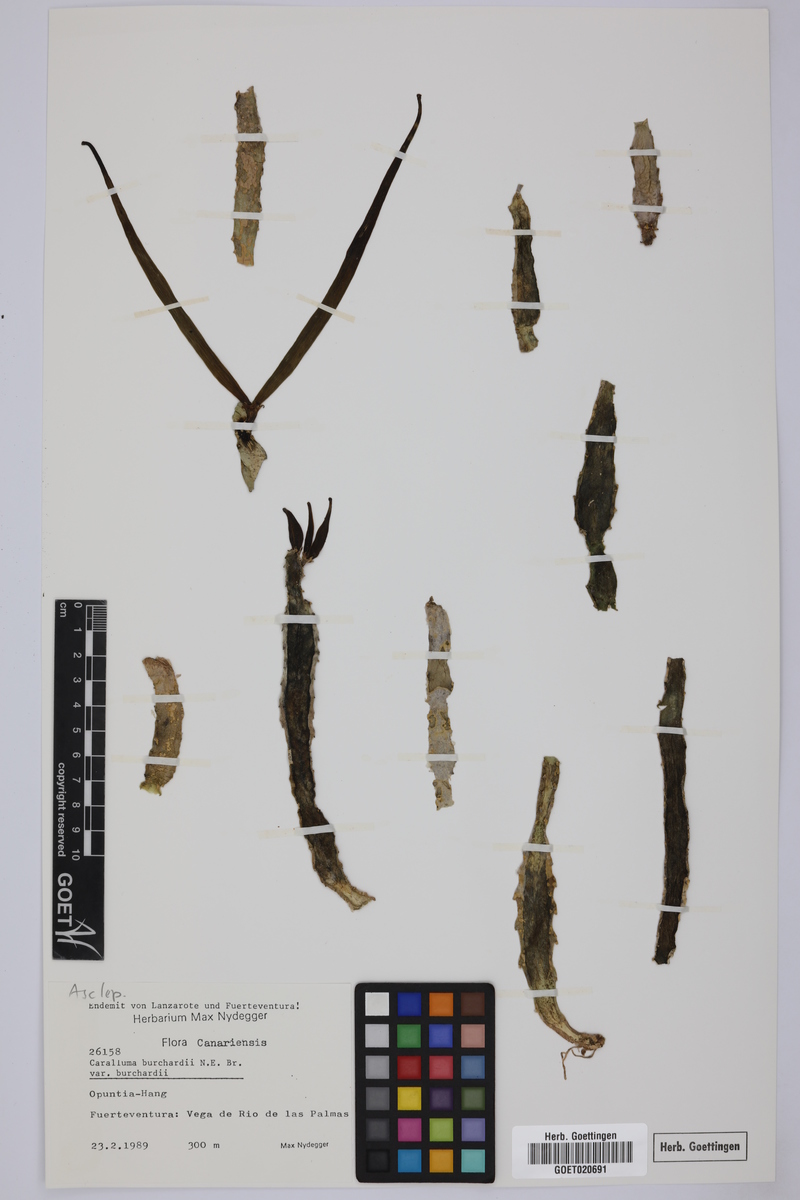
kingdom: Plantae
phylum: Tracheophyta
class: Magnoliopsida
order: Gentianales
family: Apocynaceae
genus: Ceropegia
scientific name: Ceropegia burchardii
